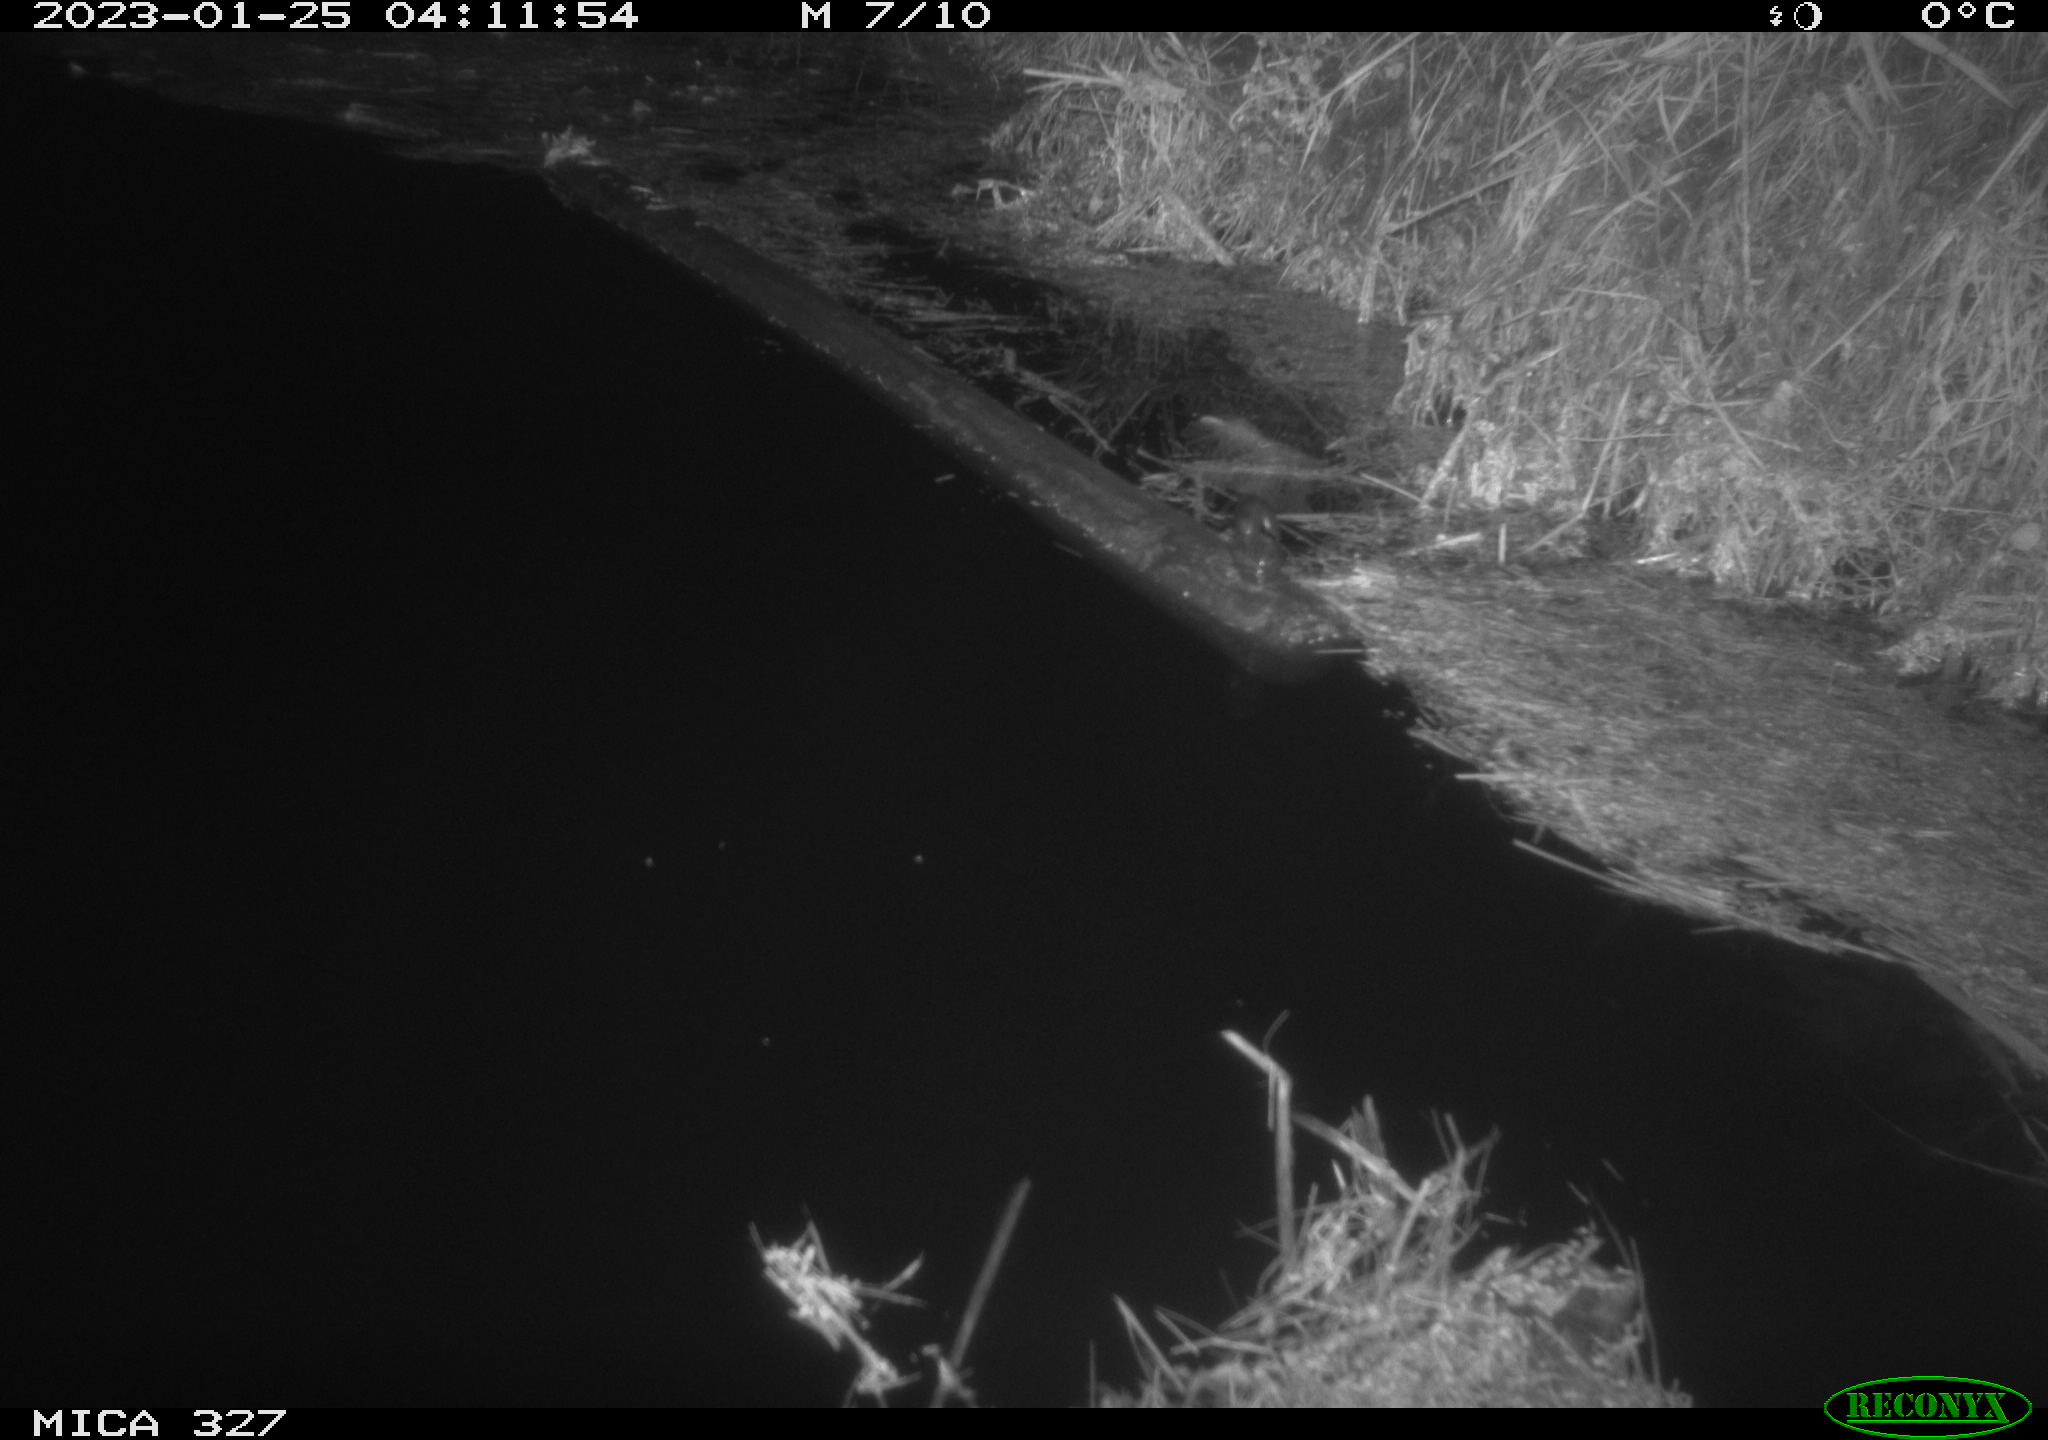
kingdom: Animalia
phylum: Chordata
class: Mammalia
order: Rodentia
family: Cricetidae
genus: Ondatra
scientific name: Ondatra zibethicus
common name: Muskrat
